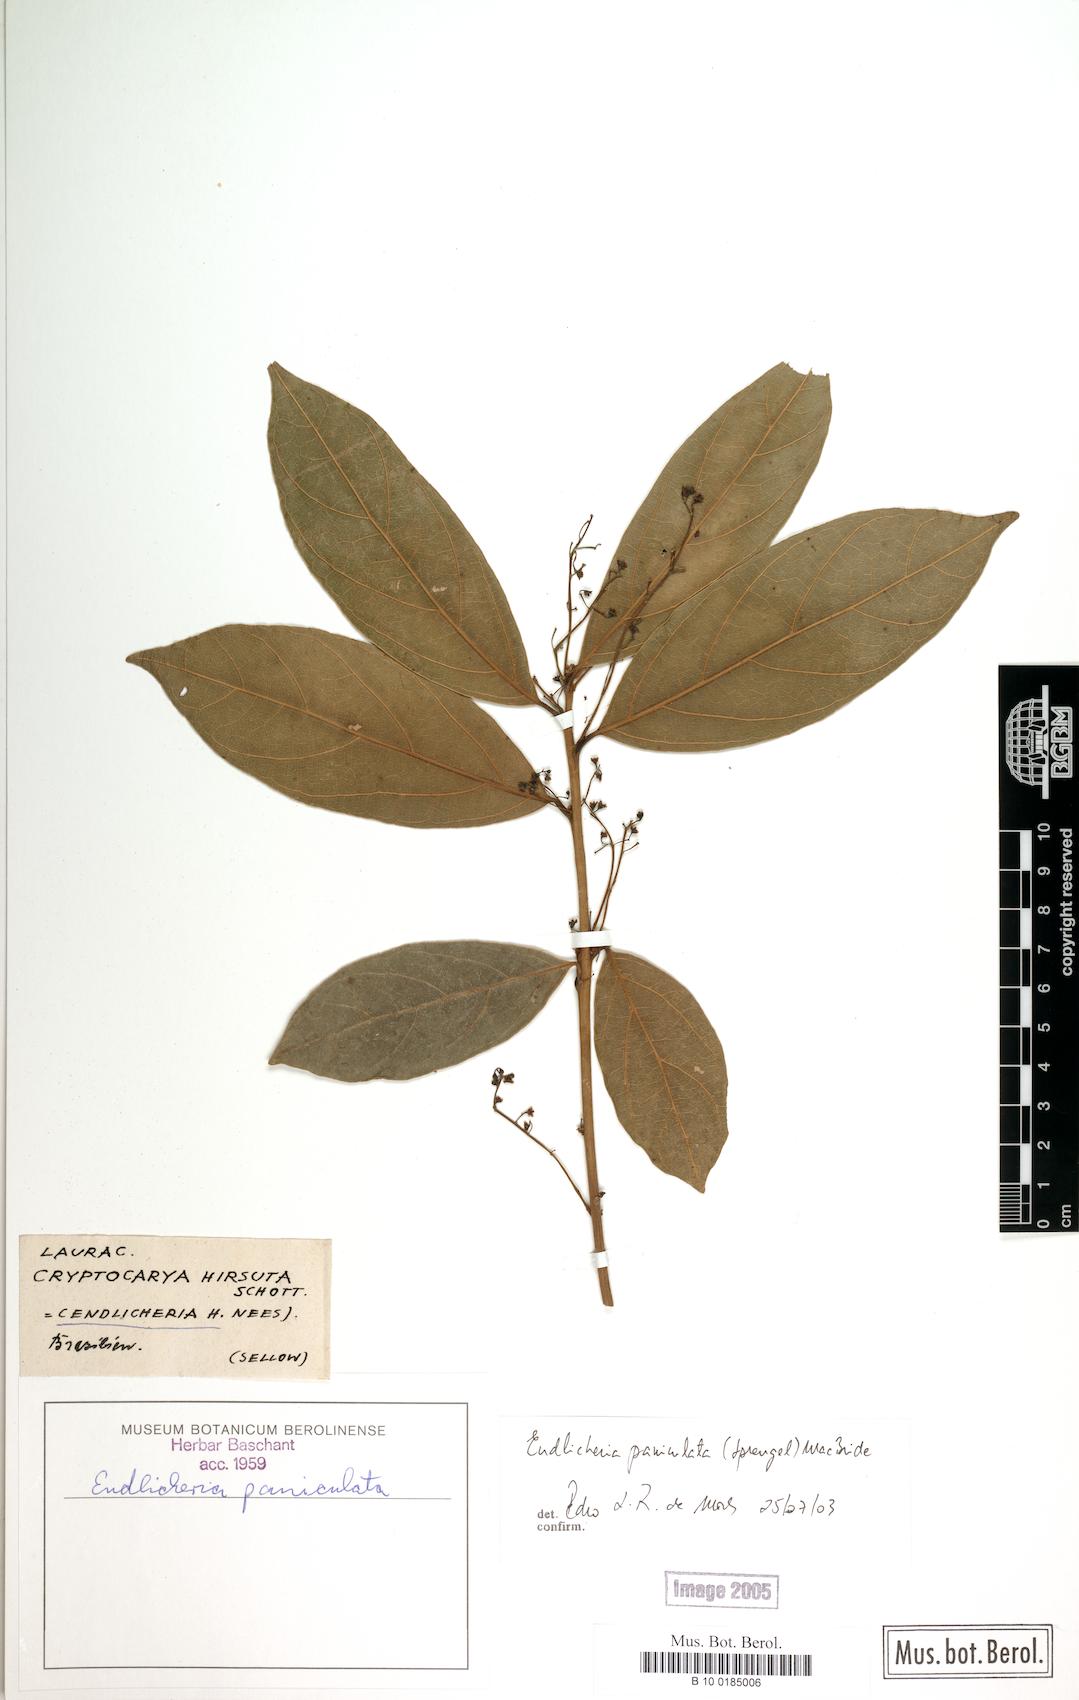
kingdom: Plantae
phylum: Tracheophyta
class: Magnoliopsida
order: Laurales
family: Lauraceae
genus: Endlicheria
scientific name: Endlicheria paniculata
